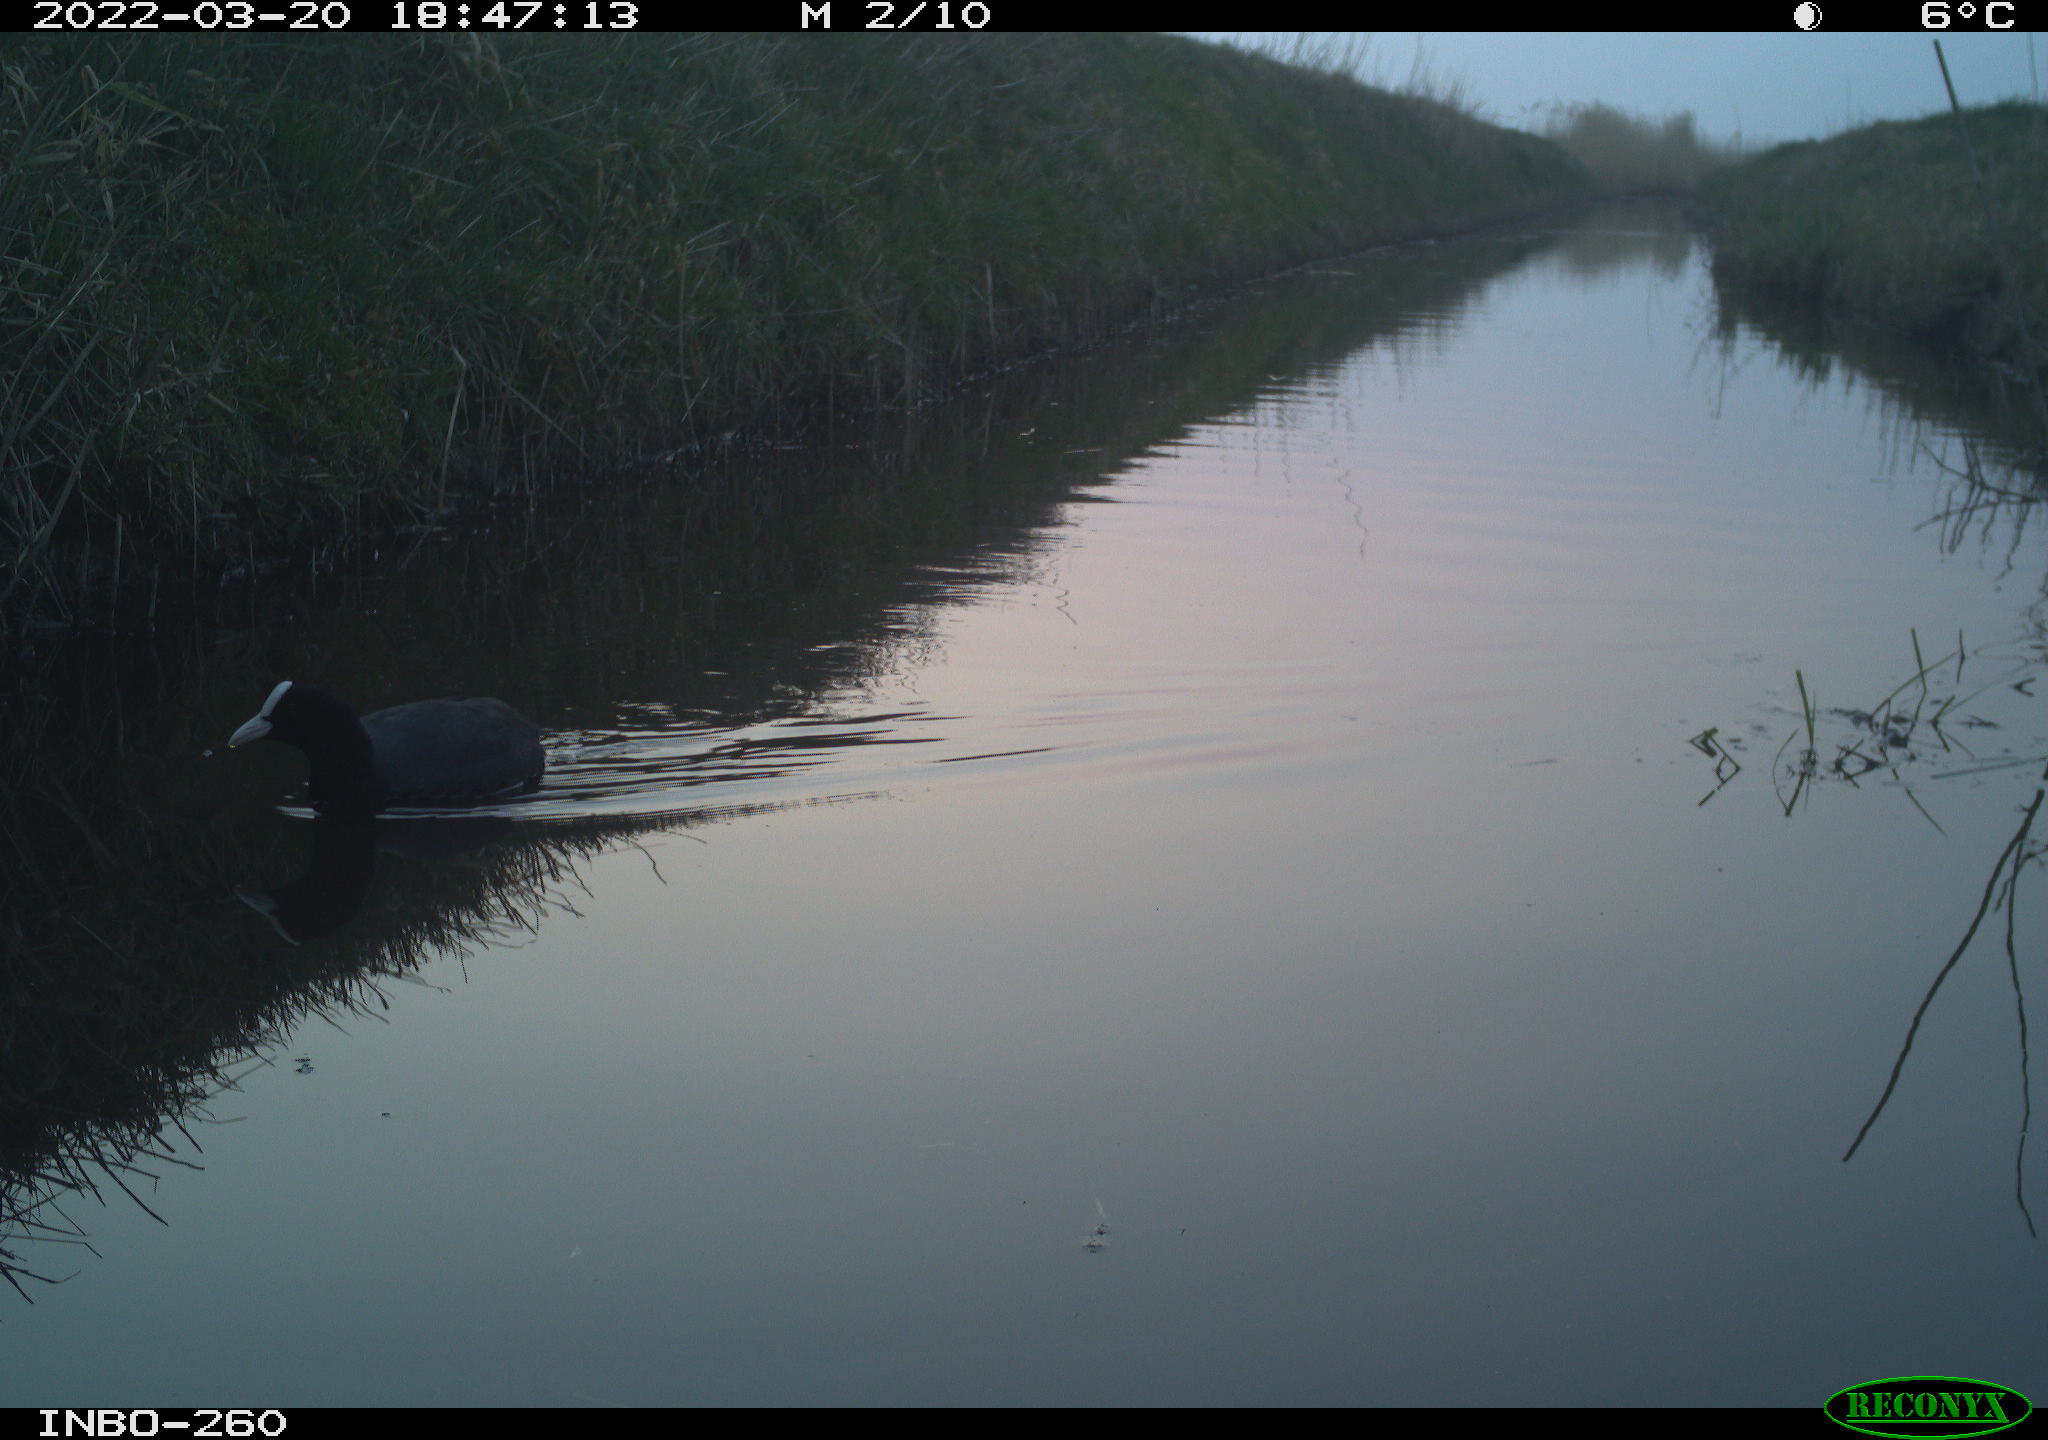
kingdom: Animalia
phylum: Chordata
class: Aves
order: Gruiformes
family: Rallidae
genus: Fulica
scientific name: Fulica atra
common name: Eurasian coot
